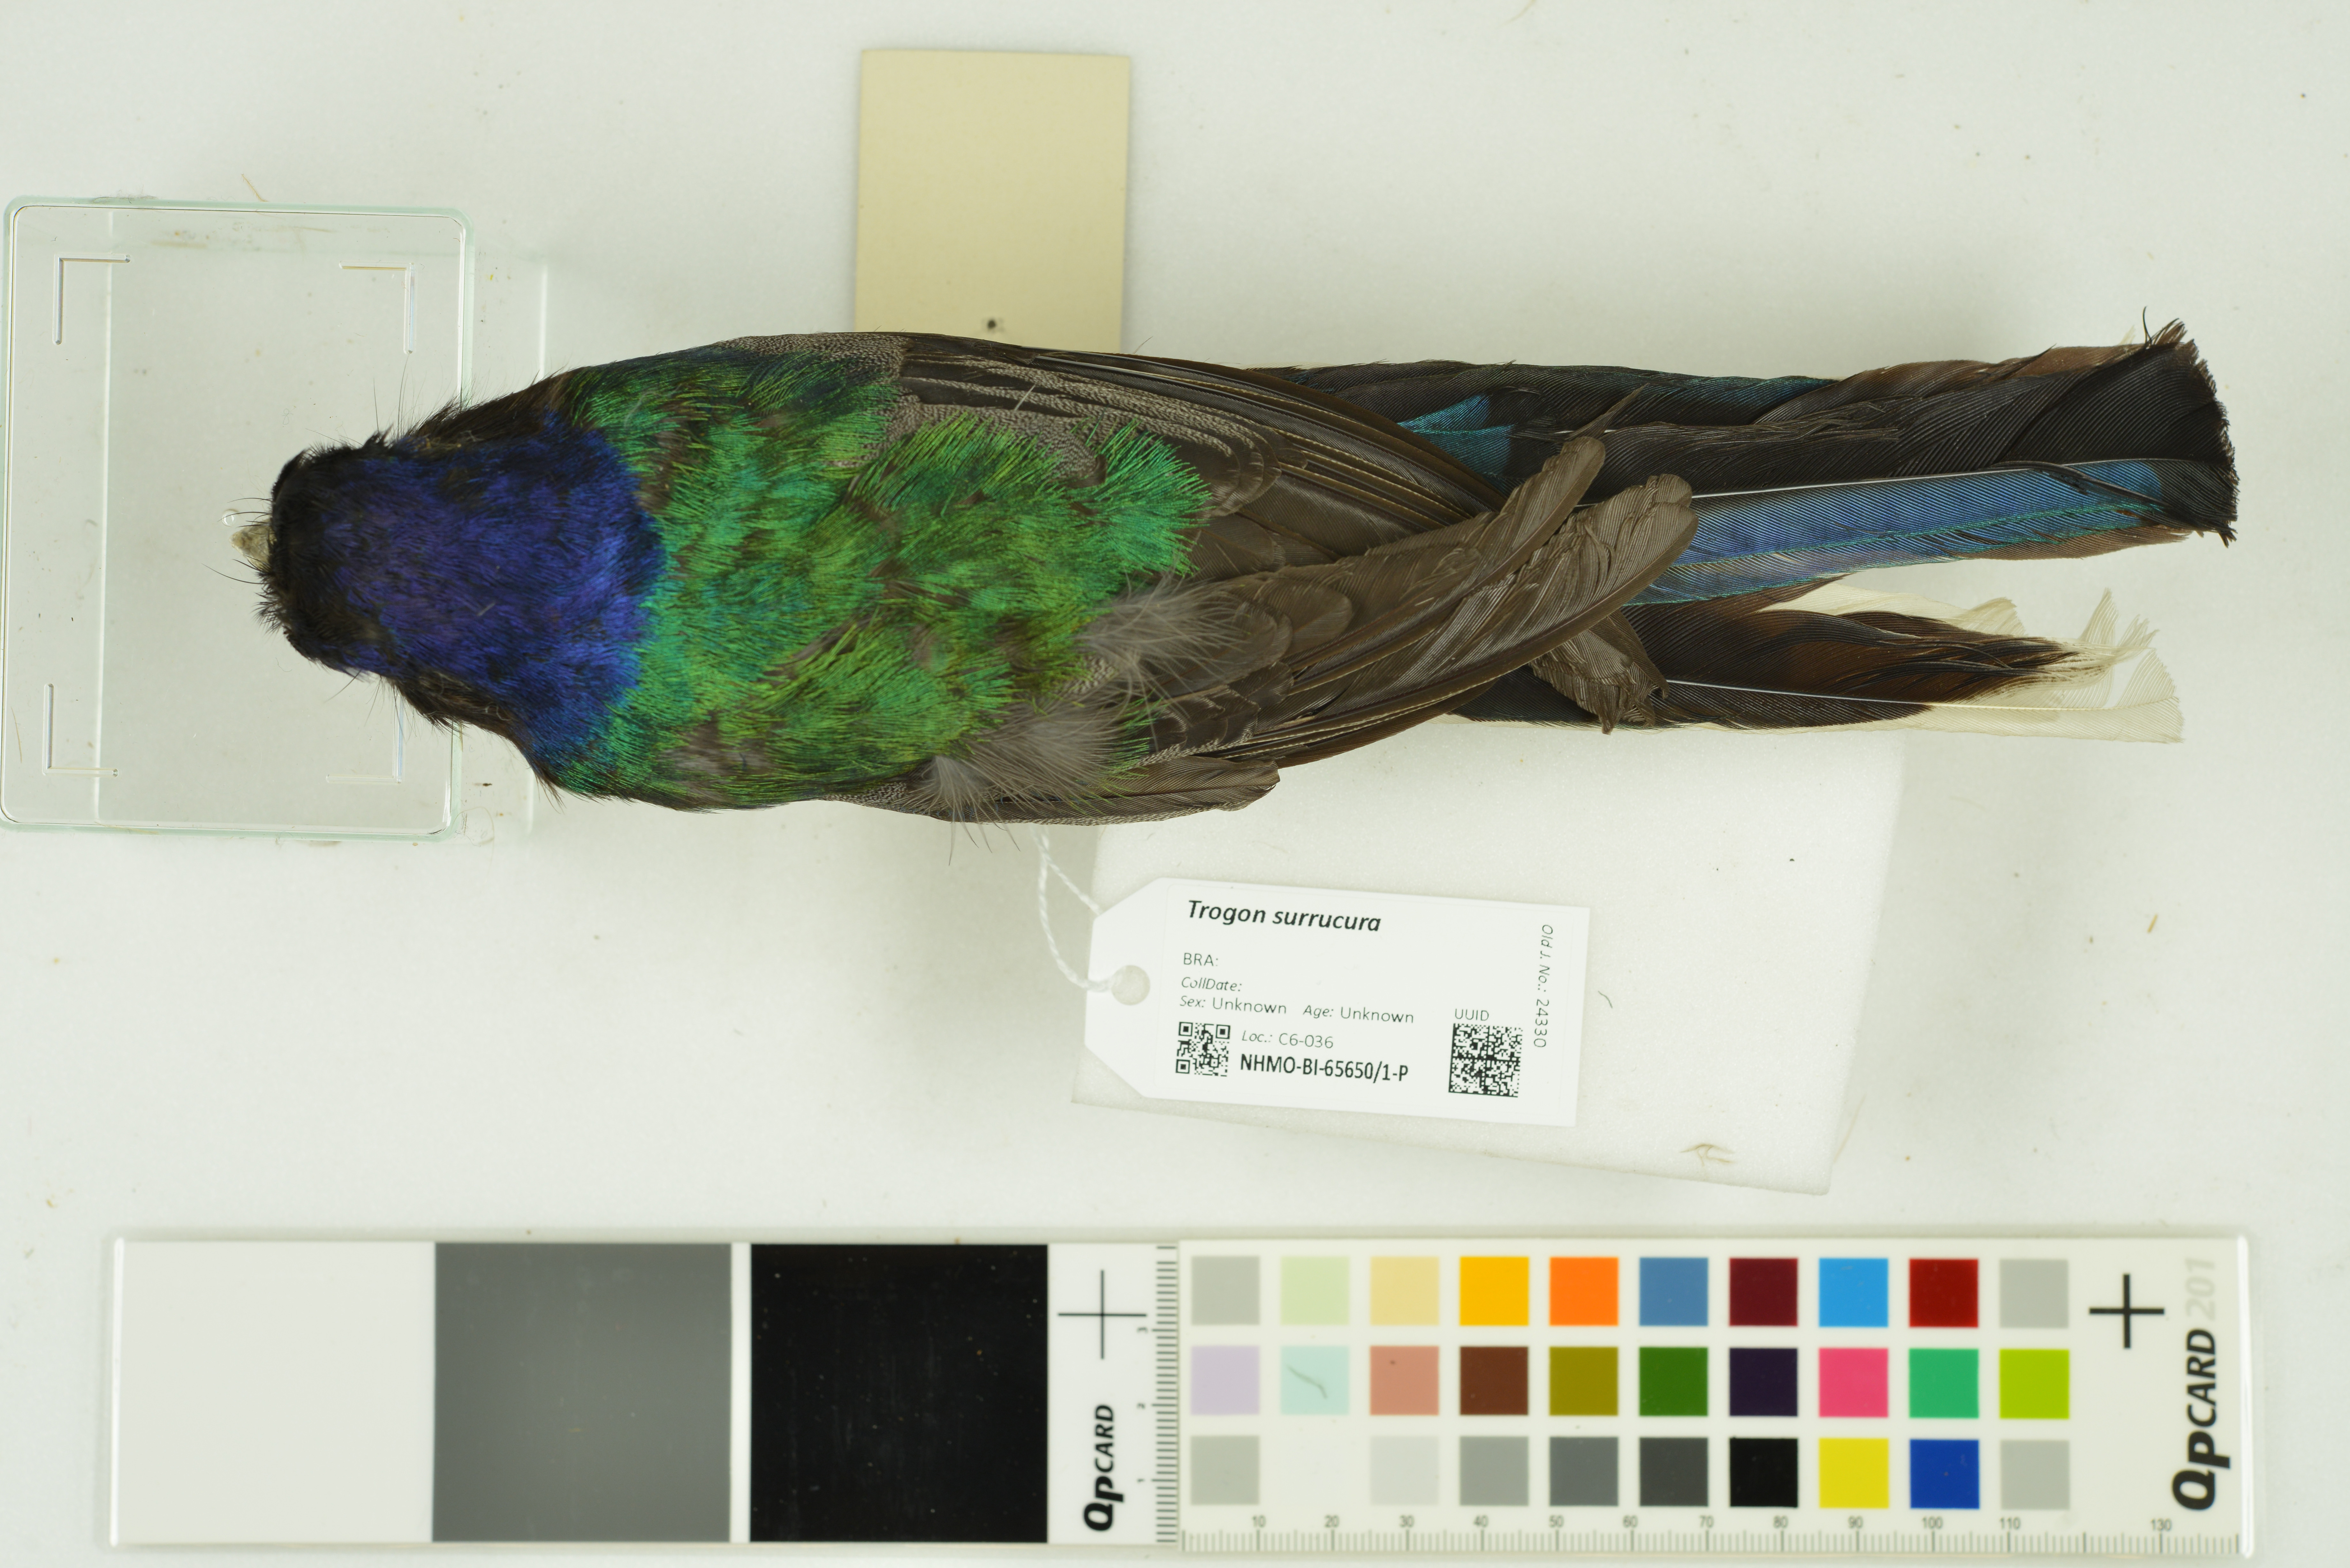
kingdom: Animalia
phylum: Chordata
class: Aves
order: Trogoniformes
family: Trogonidae
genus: Trogon
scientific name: Trogon surrucura
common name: Surucua trogon
